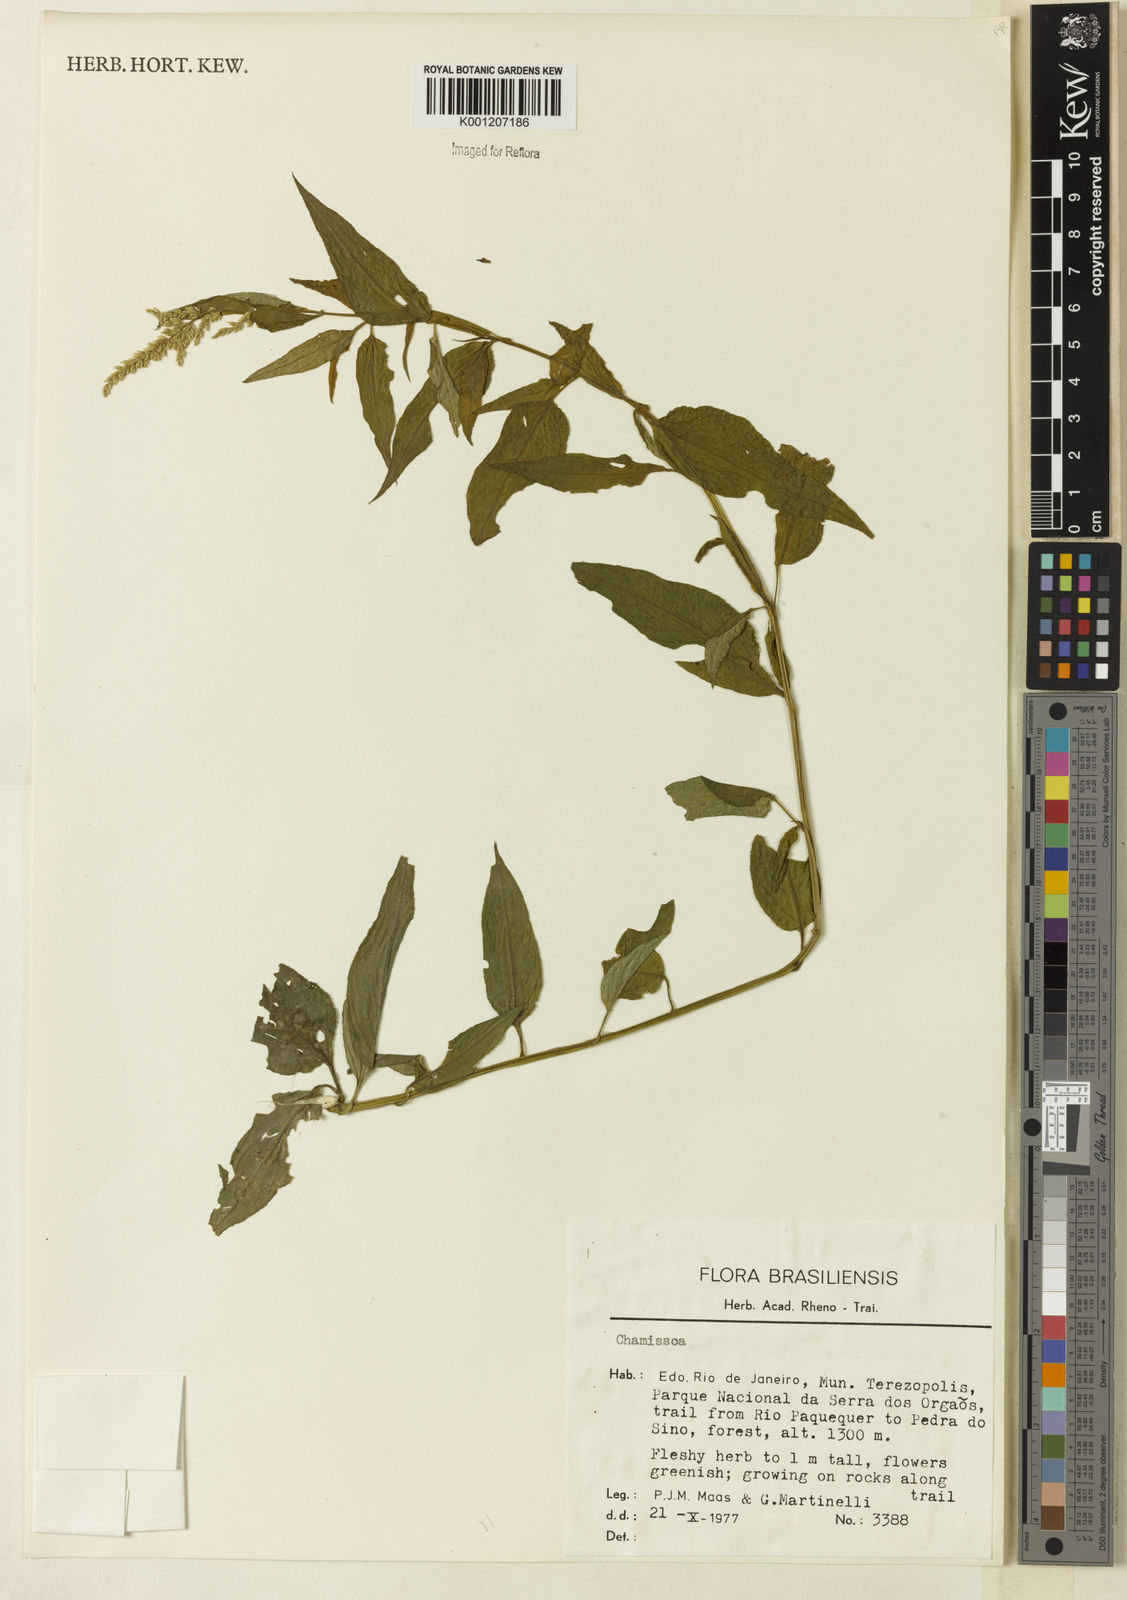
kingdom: Plantae
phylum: Tracheophyta
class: Magnoliopsida
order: Caryophyllales
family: Amaranthaceae
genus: Chamissoa
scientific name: Chamissoa
